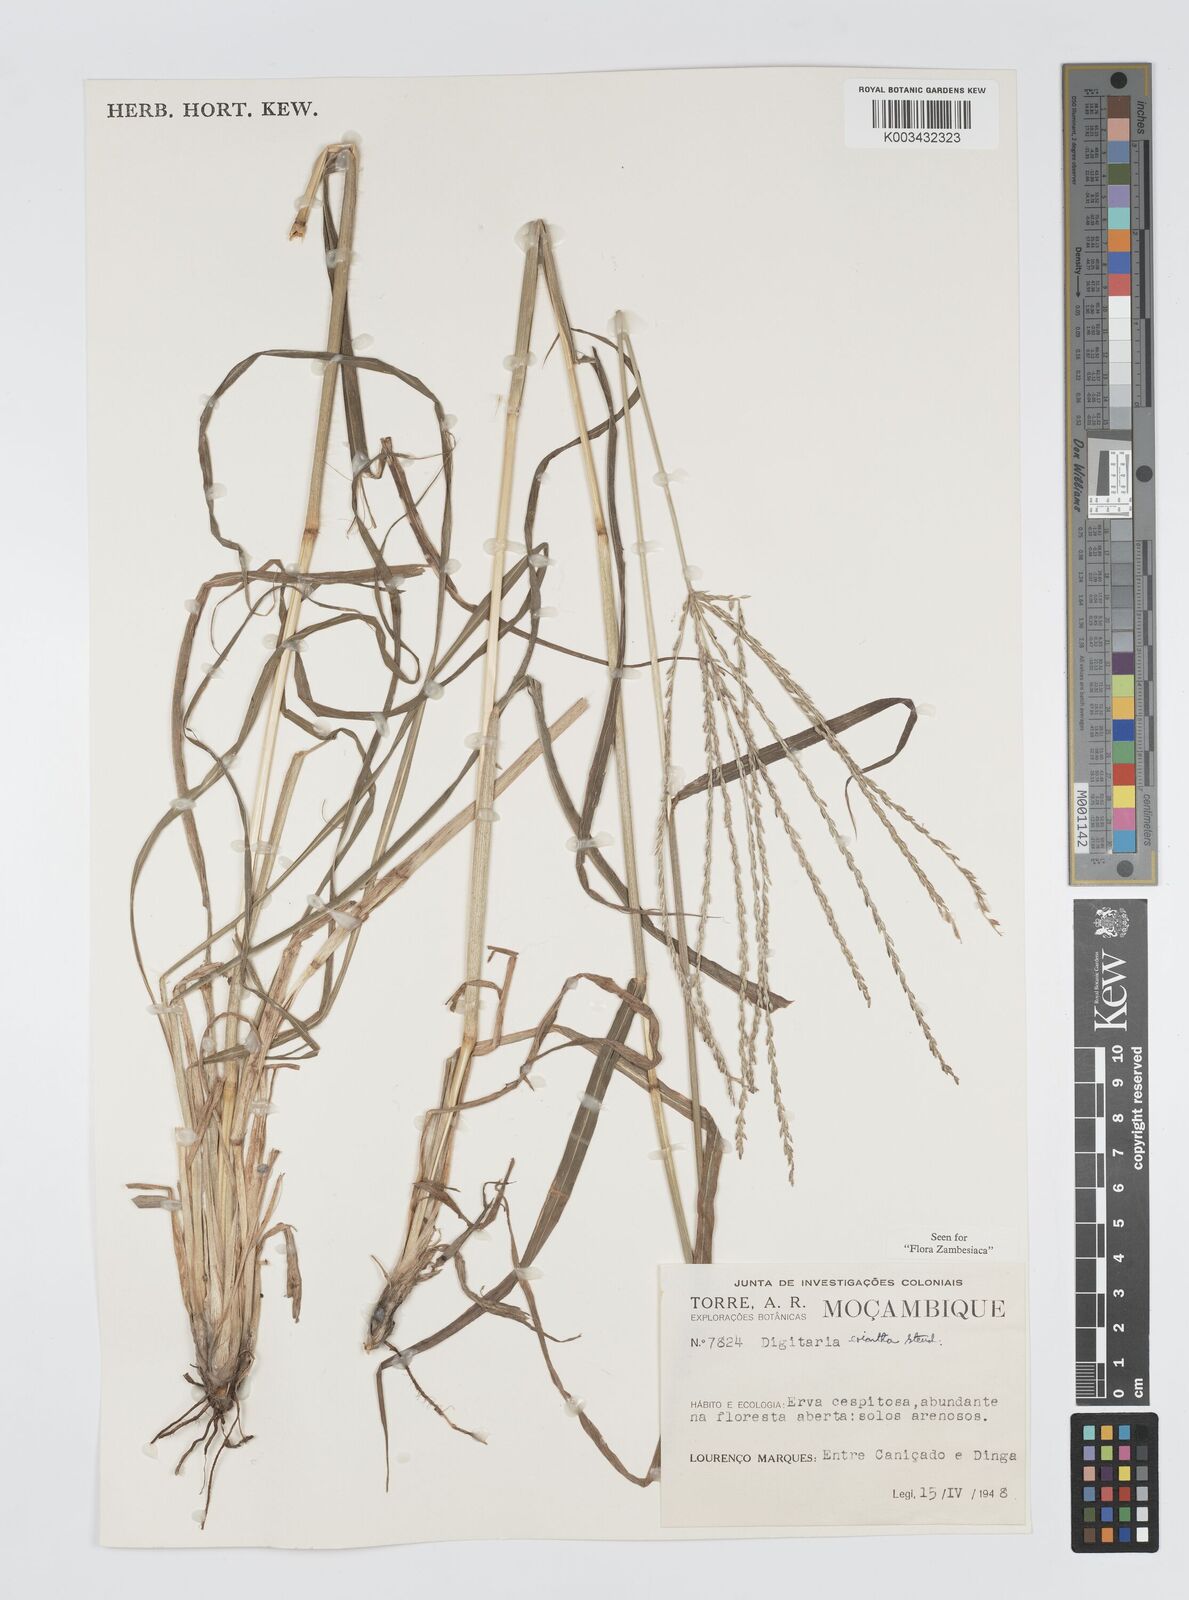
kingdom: Plantae
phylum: Tracheophyta
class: Liliopsida
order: Poales
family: Poaceae
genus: Digitaria
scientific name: Digitaria eriantha
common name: Digitgrass
